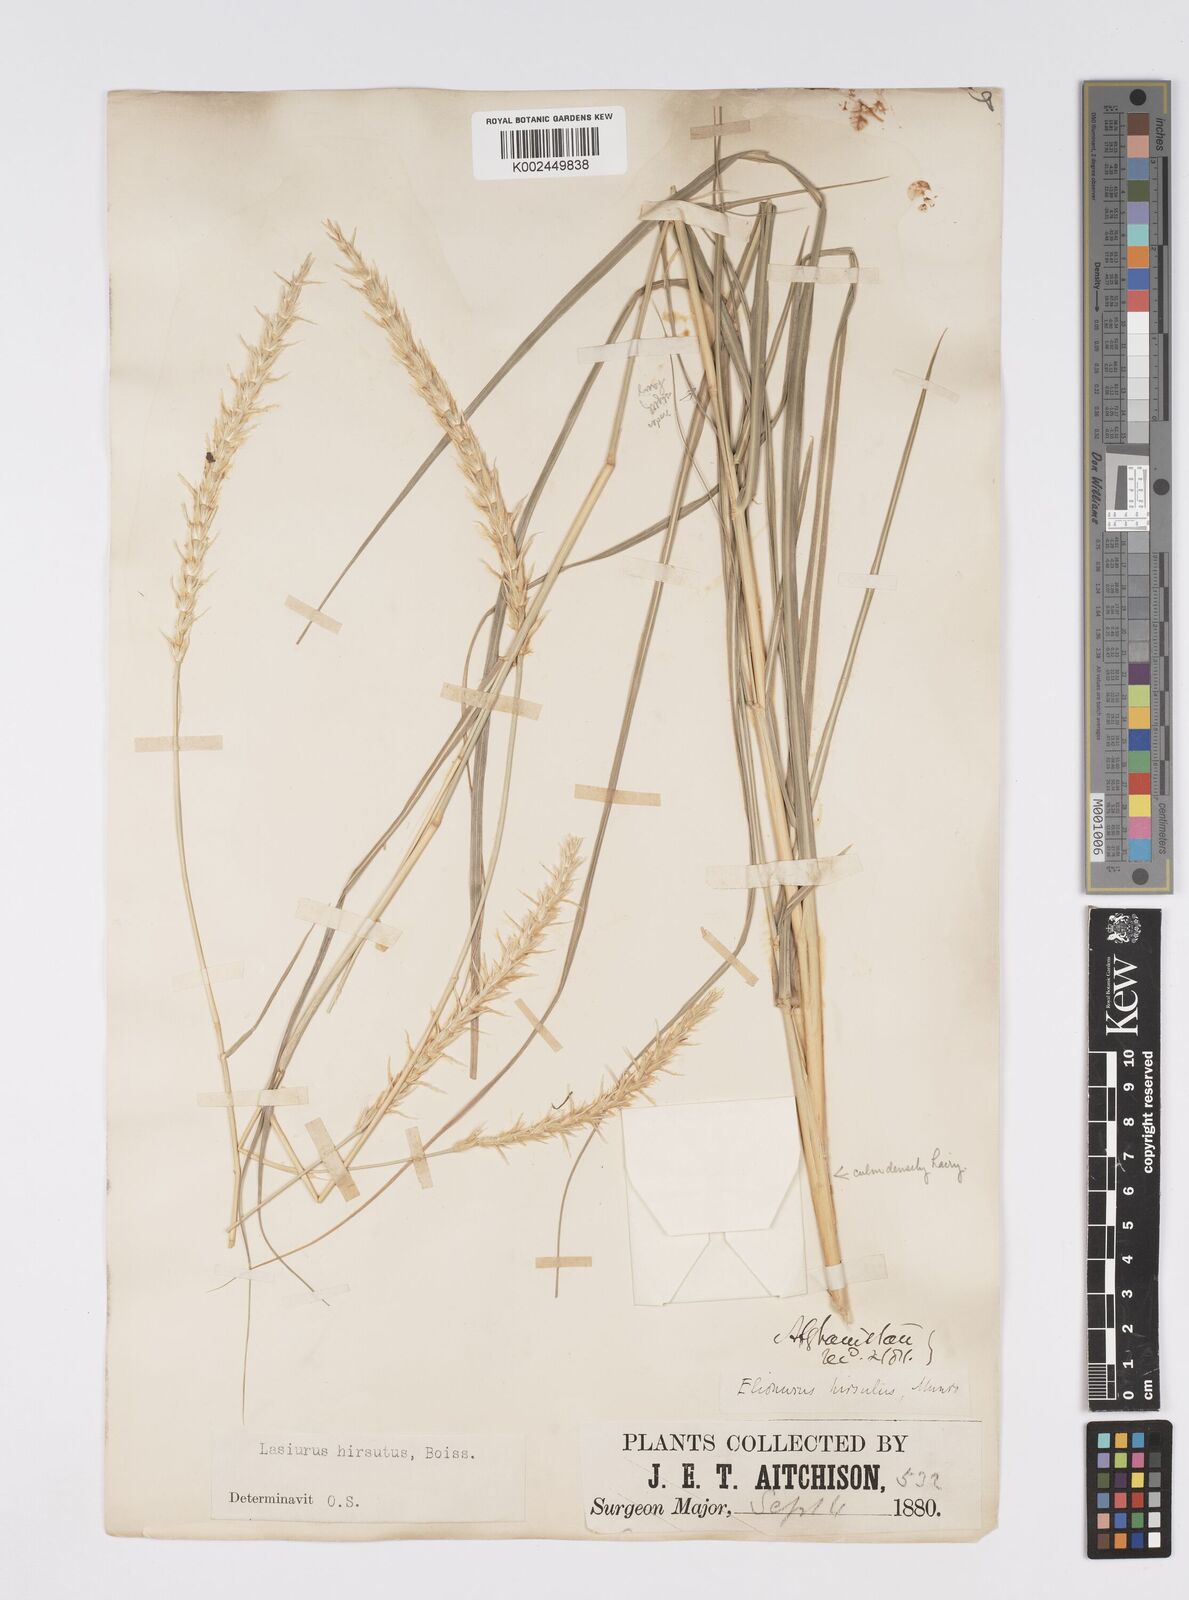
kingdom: Plantae
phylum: Tracheophyta
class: Liliopsida
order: Poales
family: Poaceae
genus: Lasiurus
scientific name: Lasiurus scindicus
